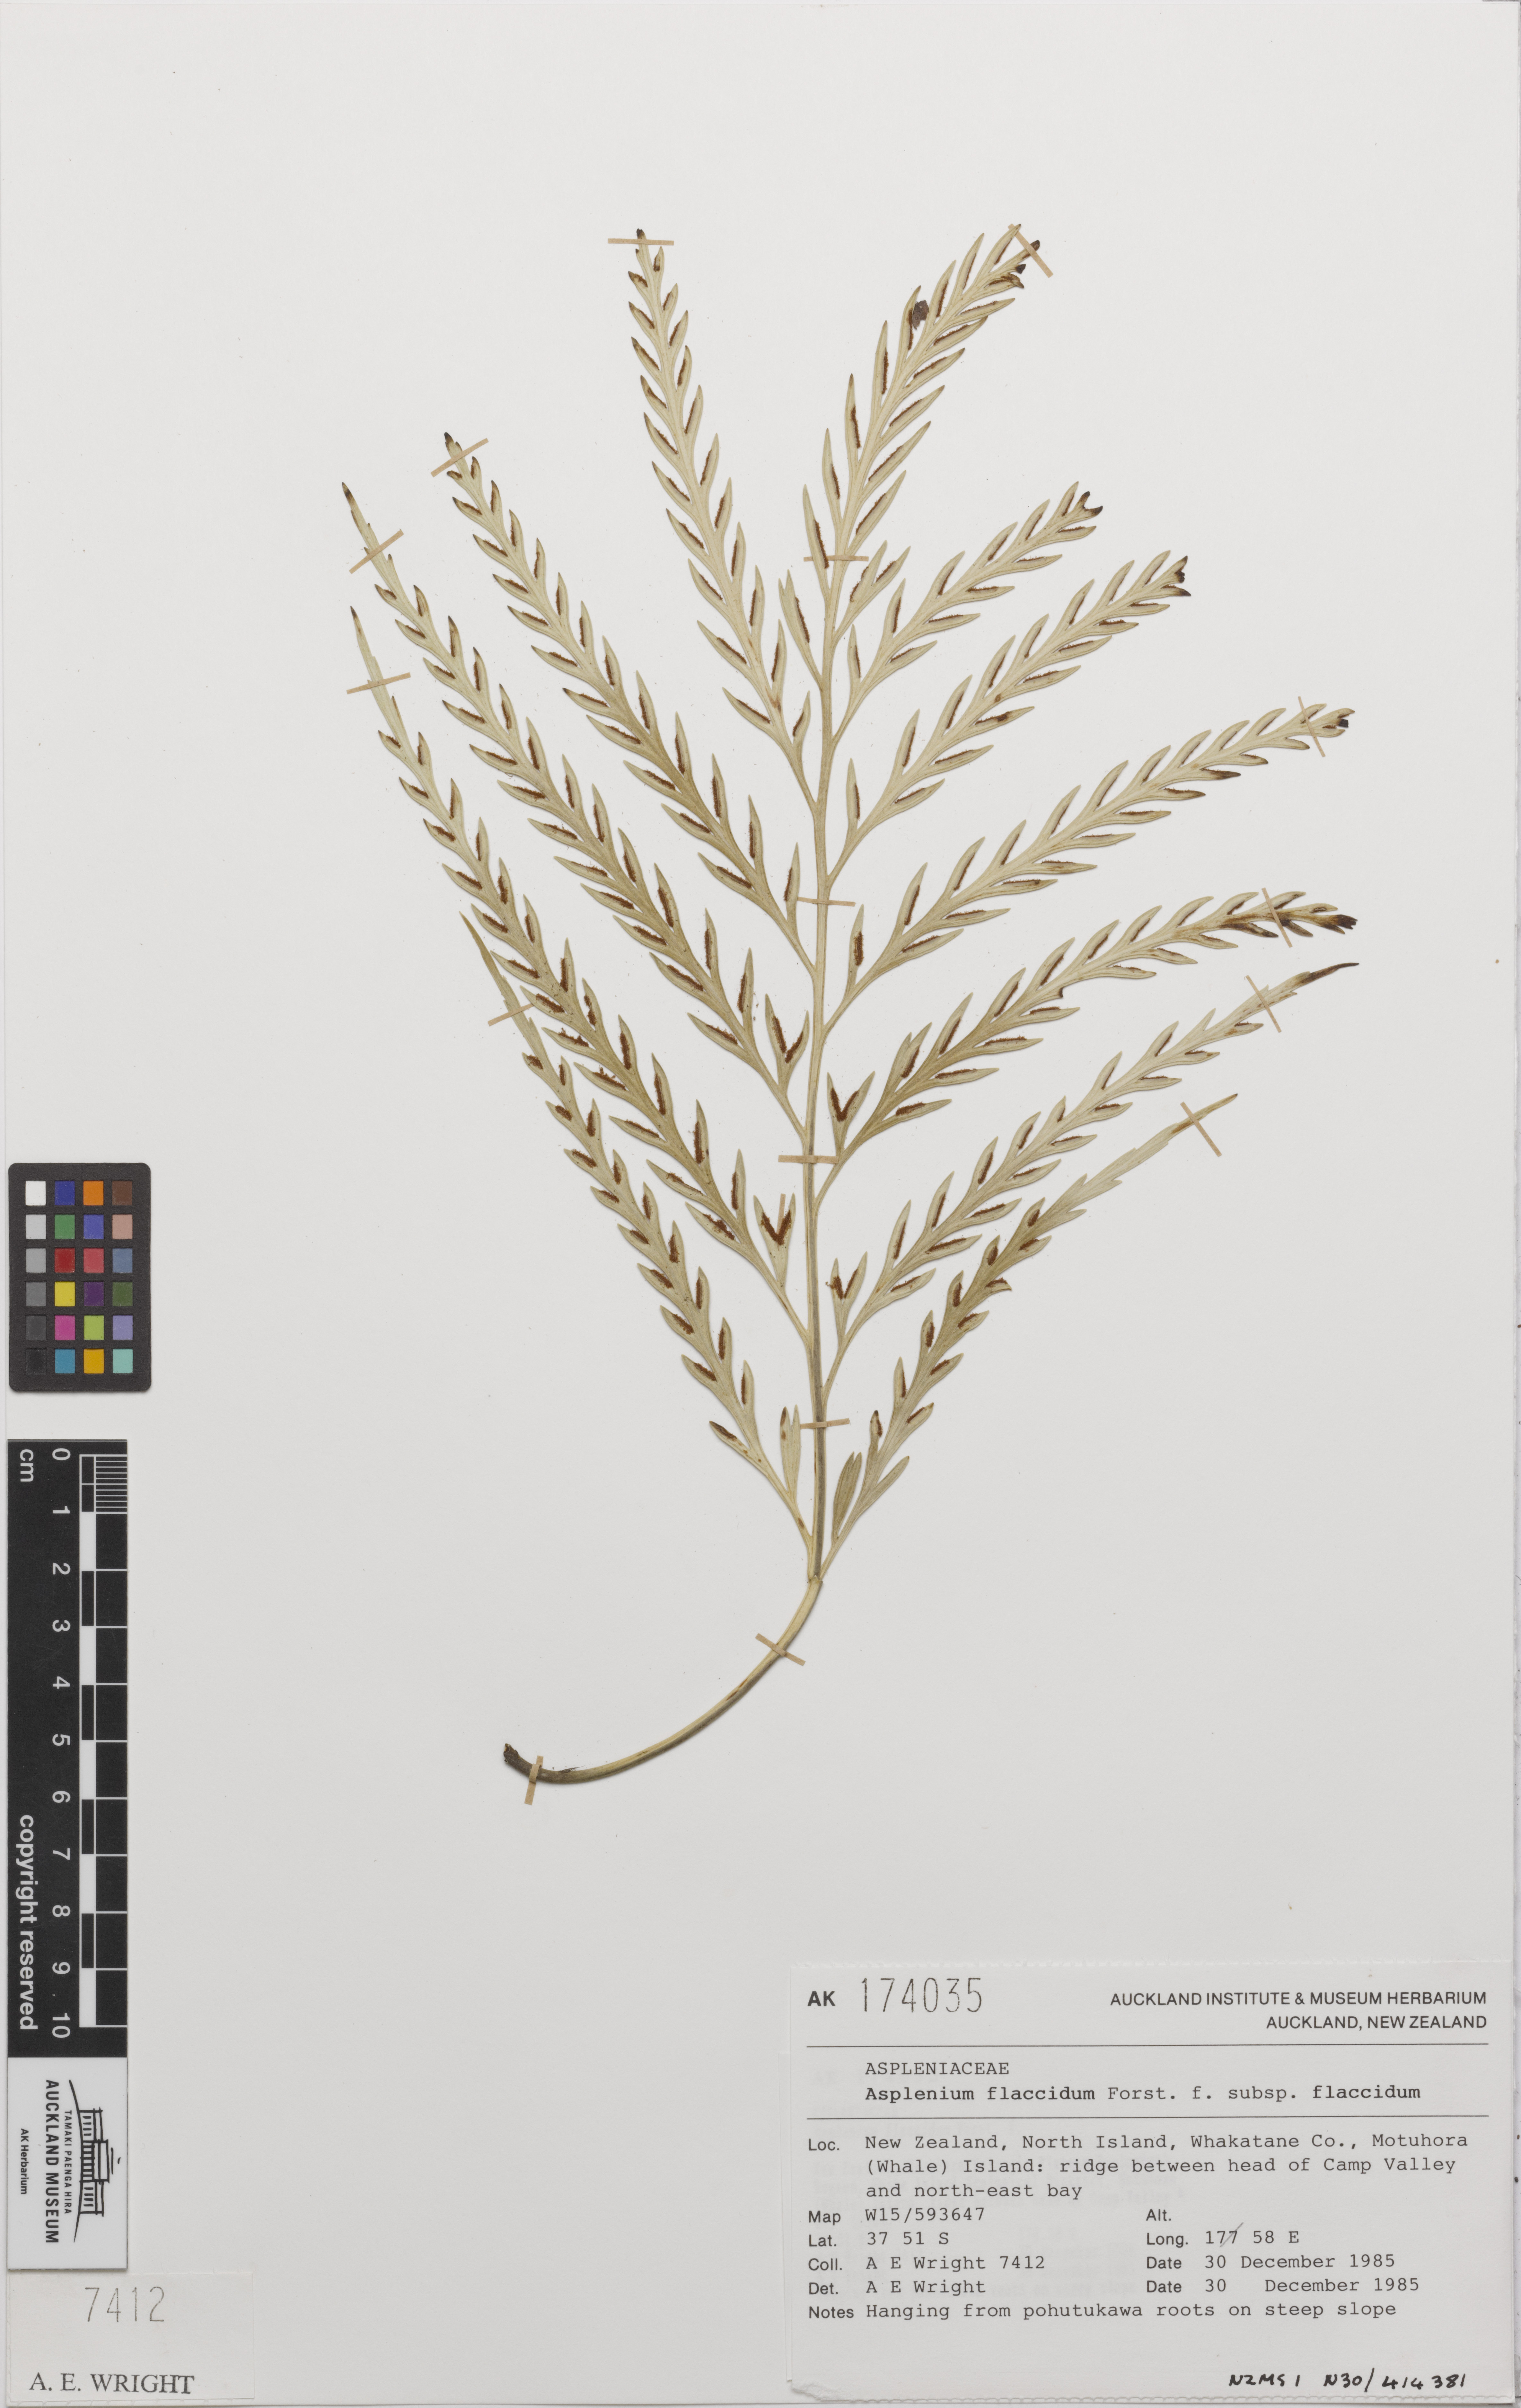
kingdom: Plantae
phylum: Tracheophyta
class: Polypodiopsida
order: Polypodiales
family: Aspleniaceae
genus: Asplenium
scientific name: Asplenium haurakiense
